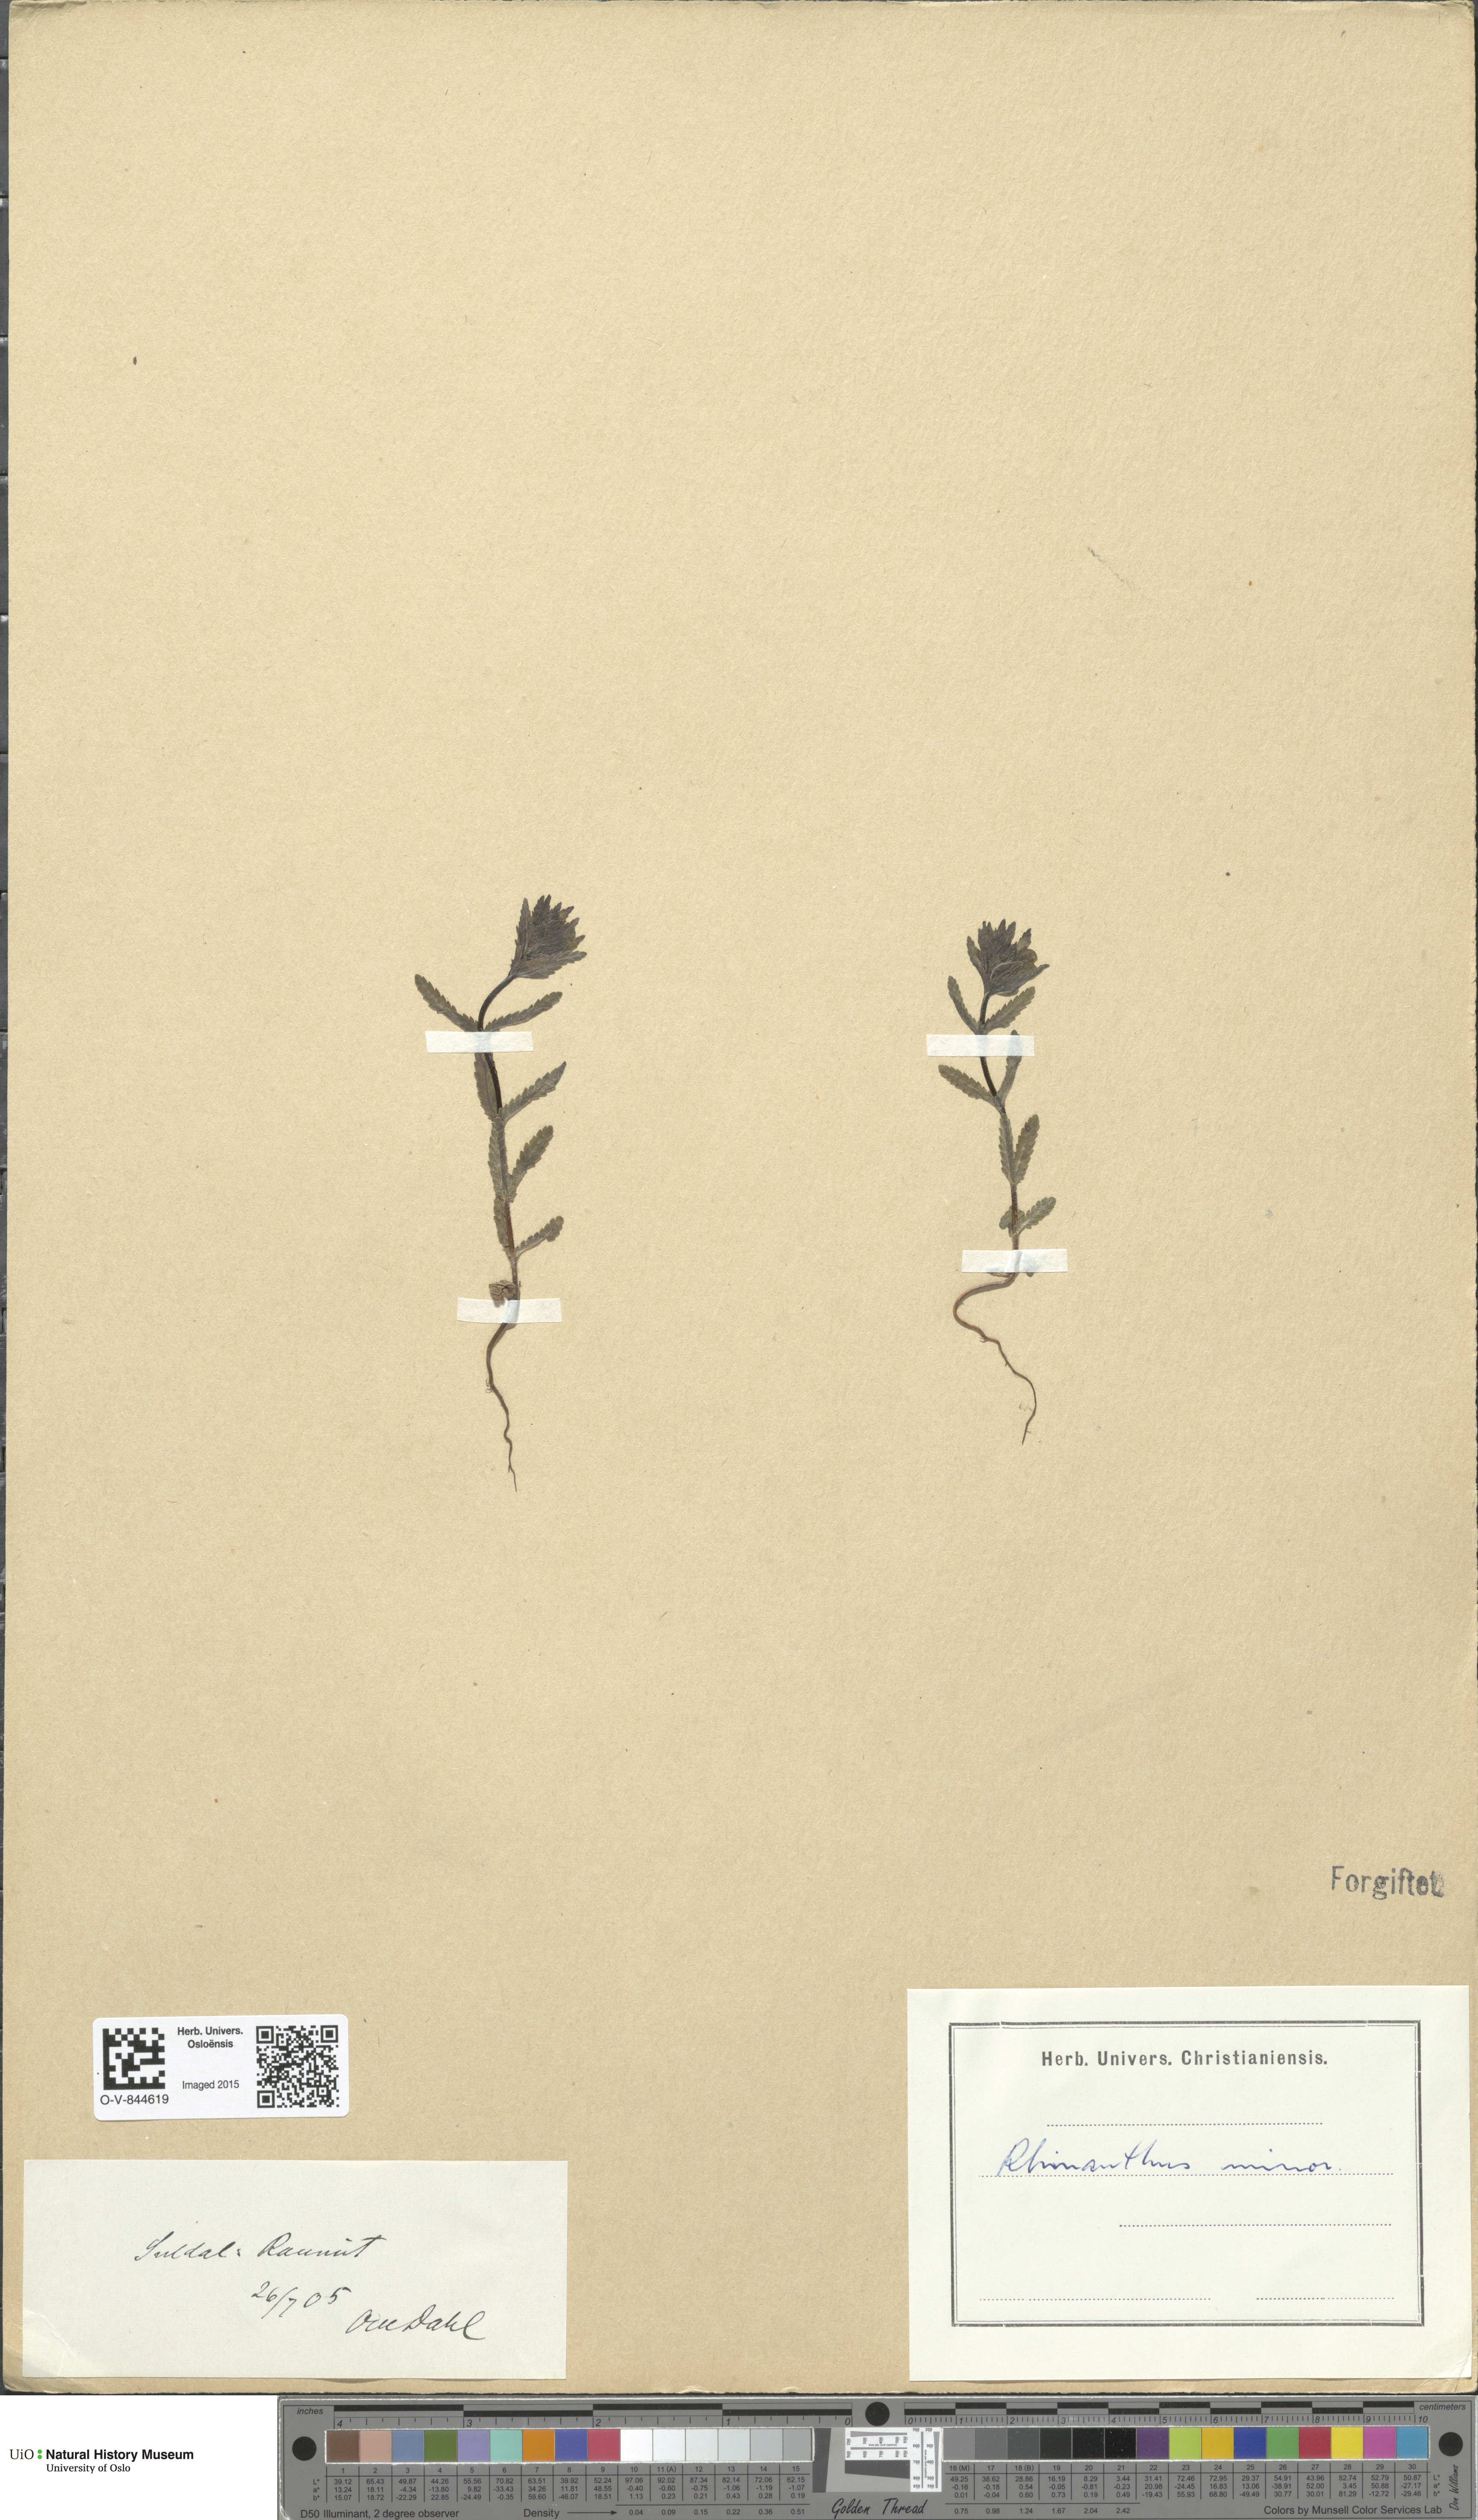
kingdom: Plantae
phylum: Tracheophyta
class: Magnoliopsida
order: Lamiales
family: Orobanchaceae
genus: Rhinanthus
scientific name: Rhinanthus minor
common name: Yellow-rattle
